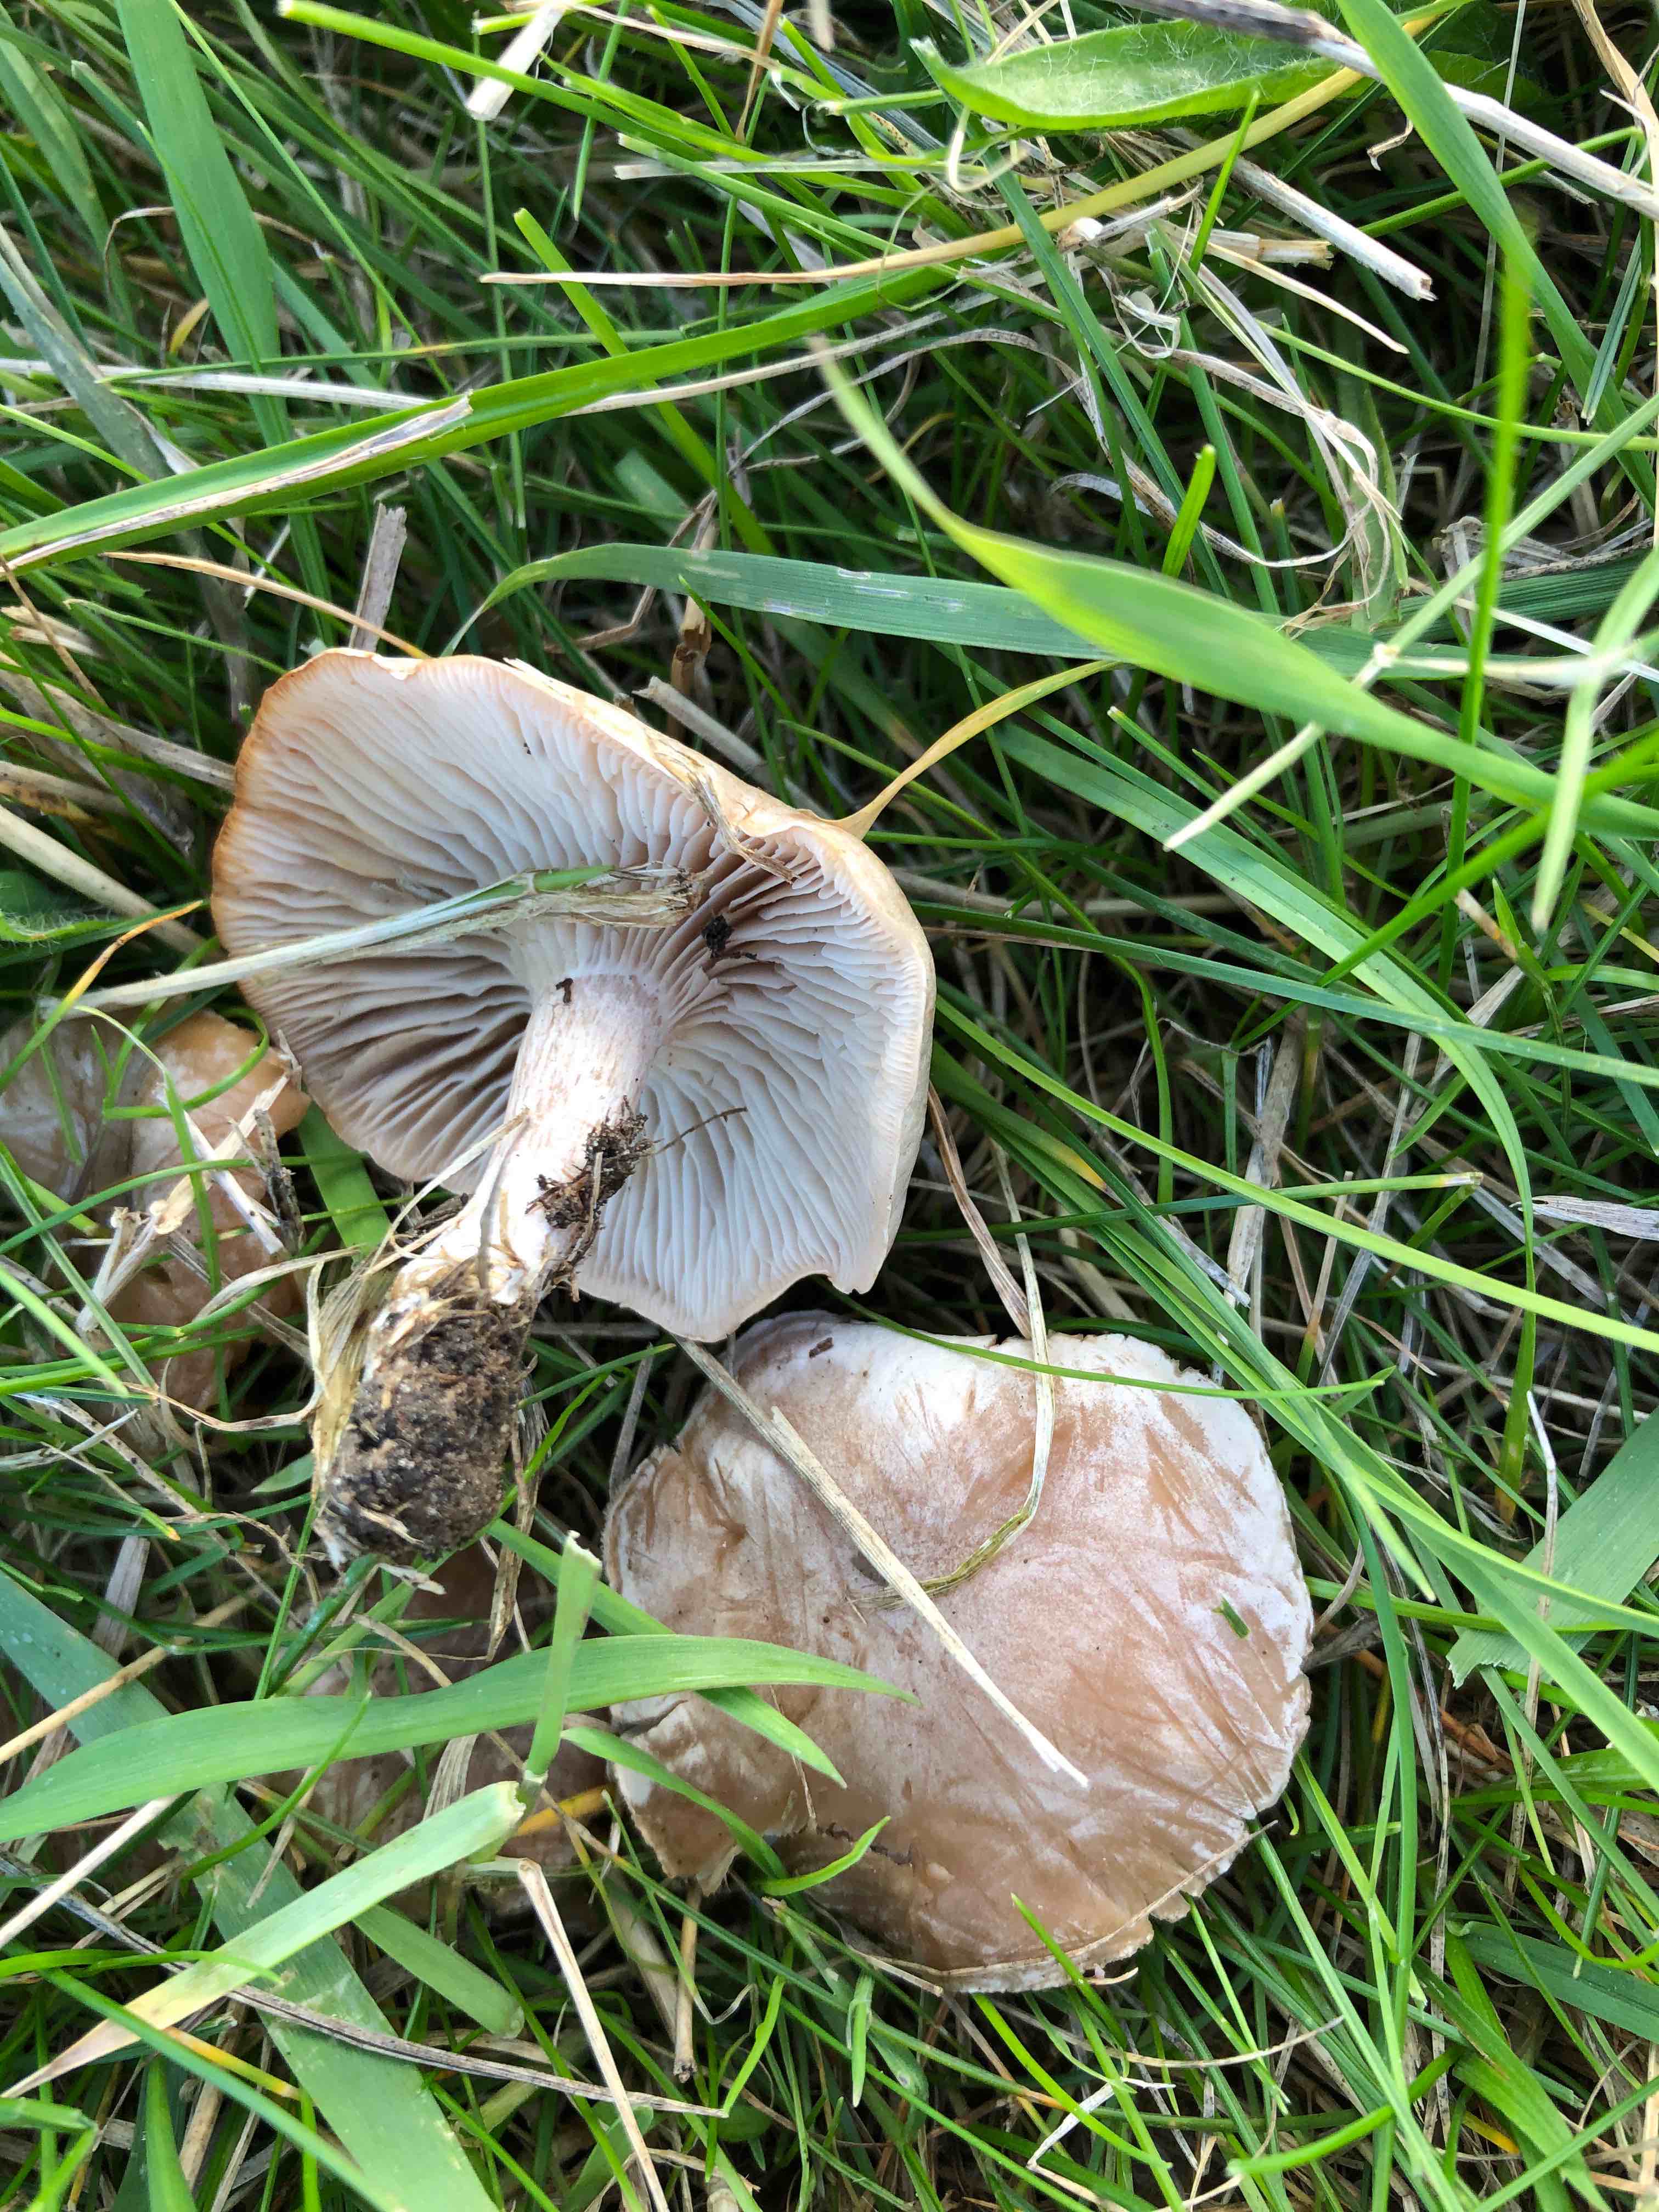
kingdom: Fungi
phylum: Basidiomycota
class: Agaricomycetes
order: Agaricales
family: Tricholomataceae
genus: Clitocybe
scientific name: Clitocybe rivulosa
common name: eng-tragthat
